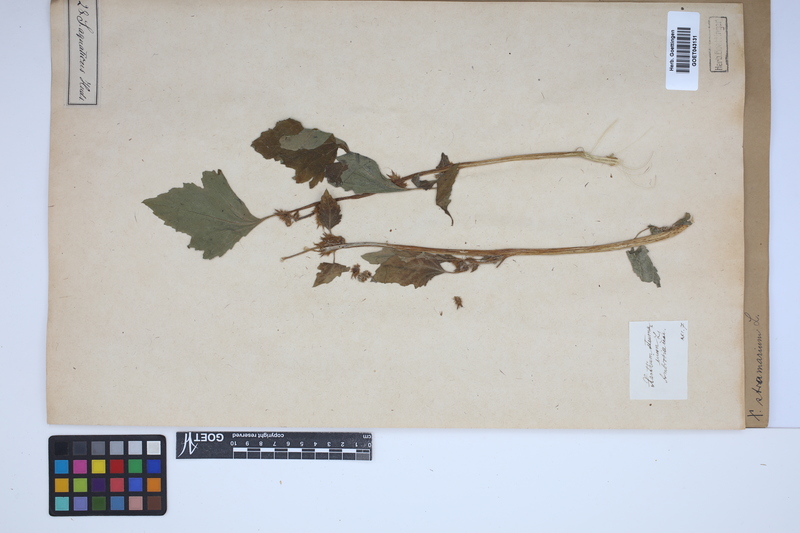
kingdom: Plantae
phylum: Tracheophyta
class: Magnoliopsida
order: Asterales
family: Asteraceae
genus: Xanthium
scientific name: Xanthium strumarium
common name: Rough cocklebur
